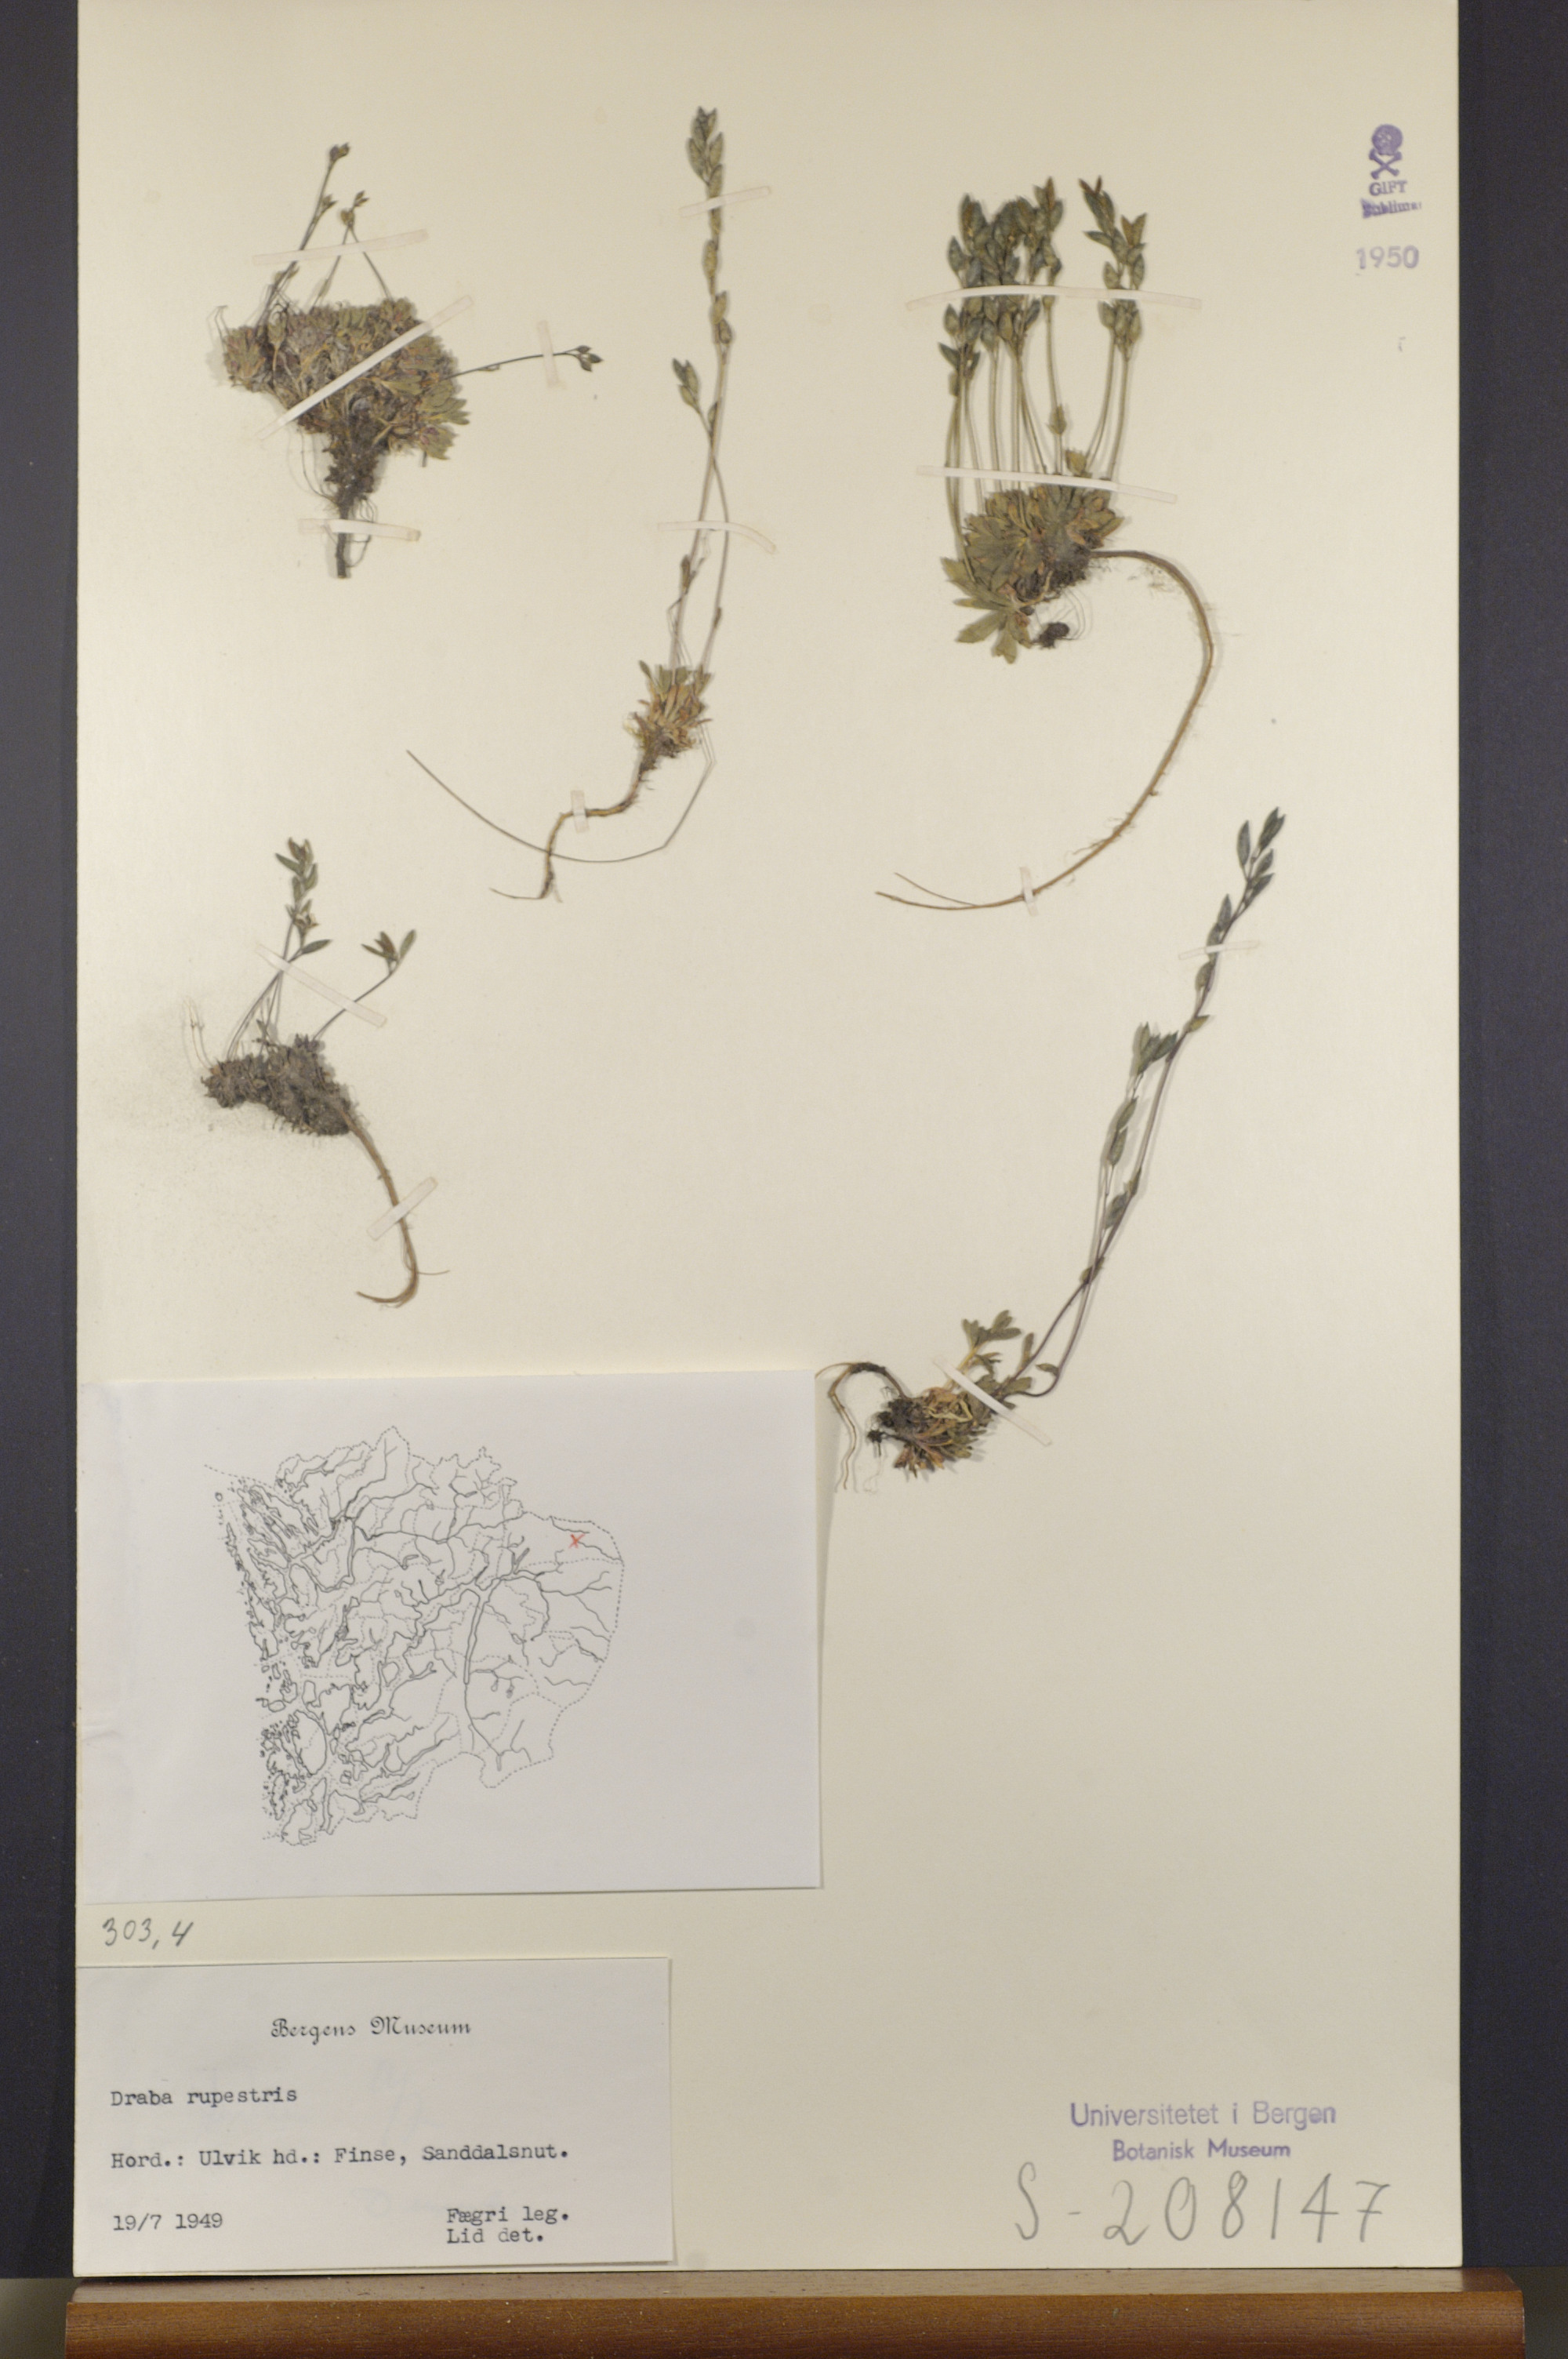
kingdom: Plantae
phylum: Tracheophyta
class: Magnoliopsida
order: Brassicales
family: Brassicaceae
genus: Draba
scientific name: Draba norvegica
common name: Rock whitlowgrass
